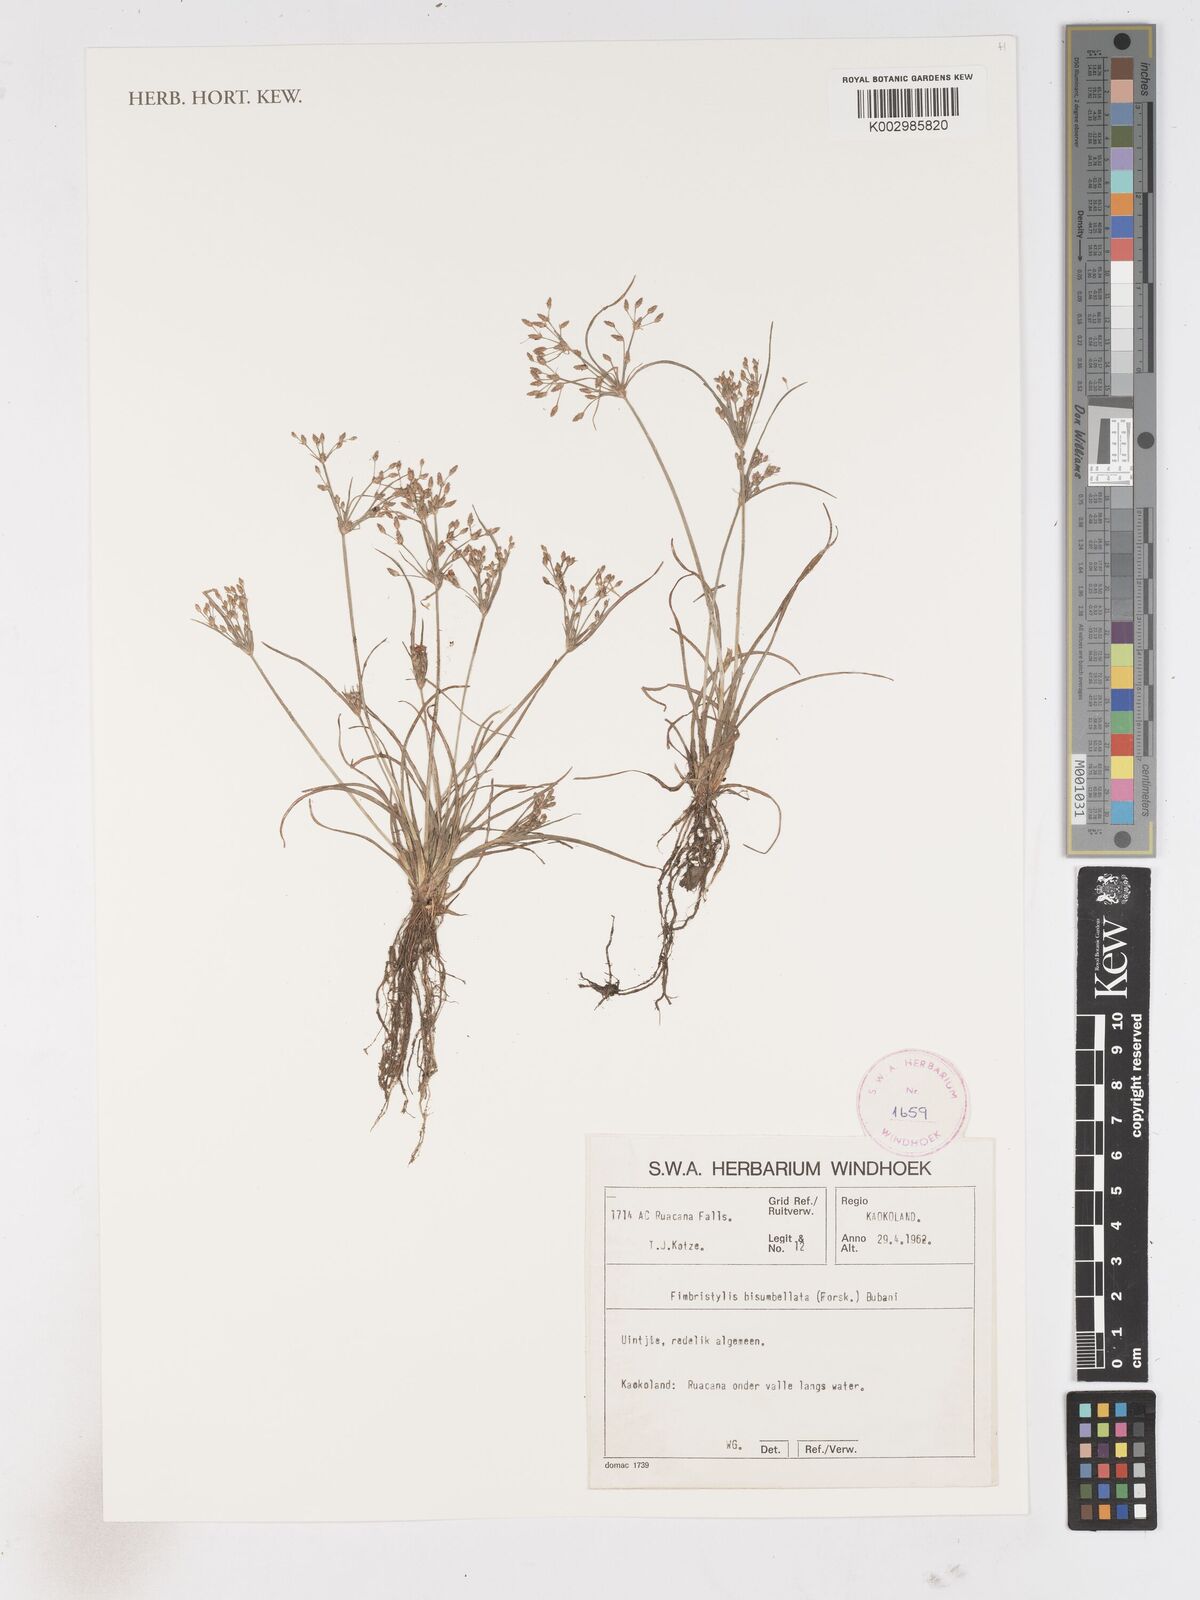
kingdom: Plantae
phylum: Tracheophyta
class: Liliopsida
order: Poales
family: Cyperaceae
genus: Fimbristylis
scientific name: Fimbristylis bisumbellata
